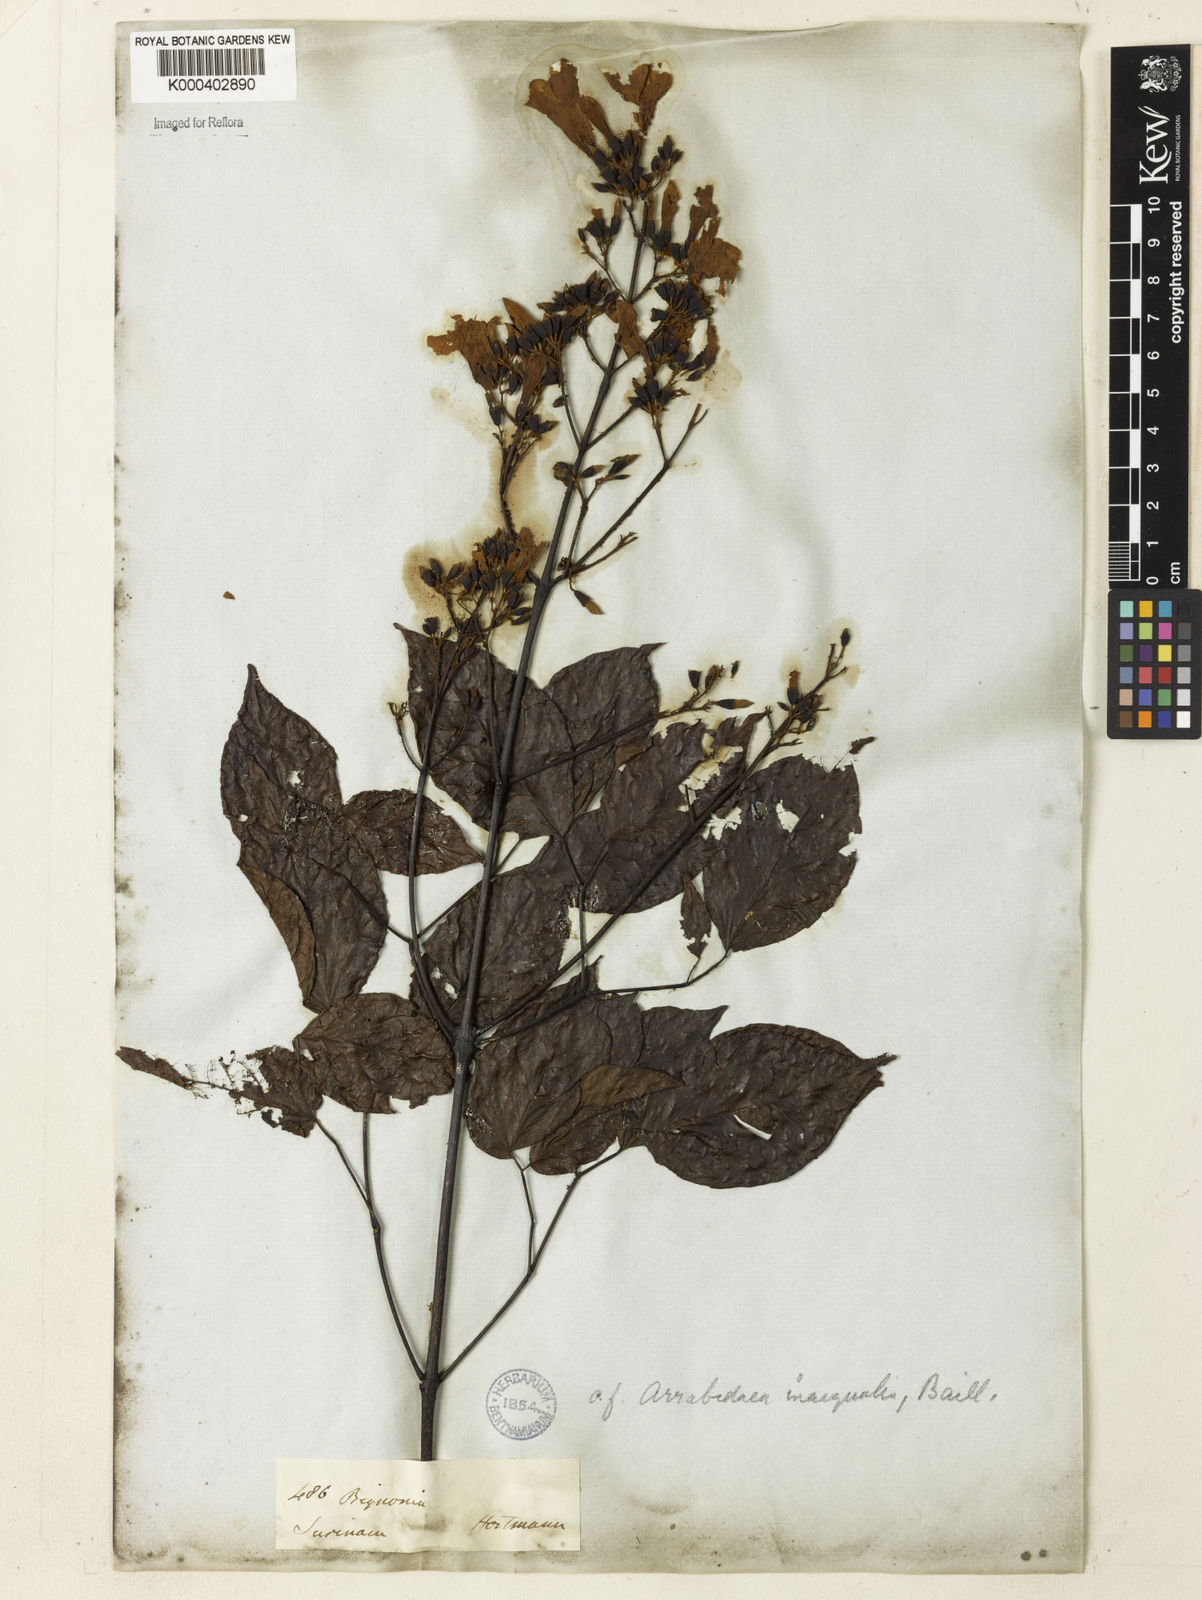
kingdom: Plantae
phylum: Tracheophyta
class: Magnoliopsida
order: Lamiales
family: Bignoniaceae
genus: Cuspidaria
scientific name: Cuspidaria inaequalis
